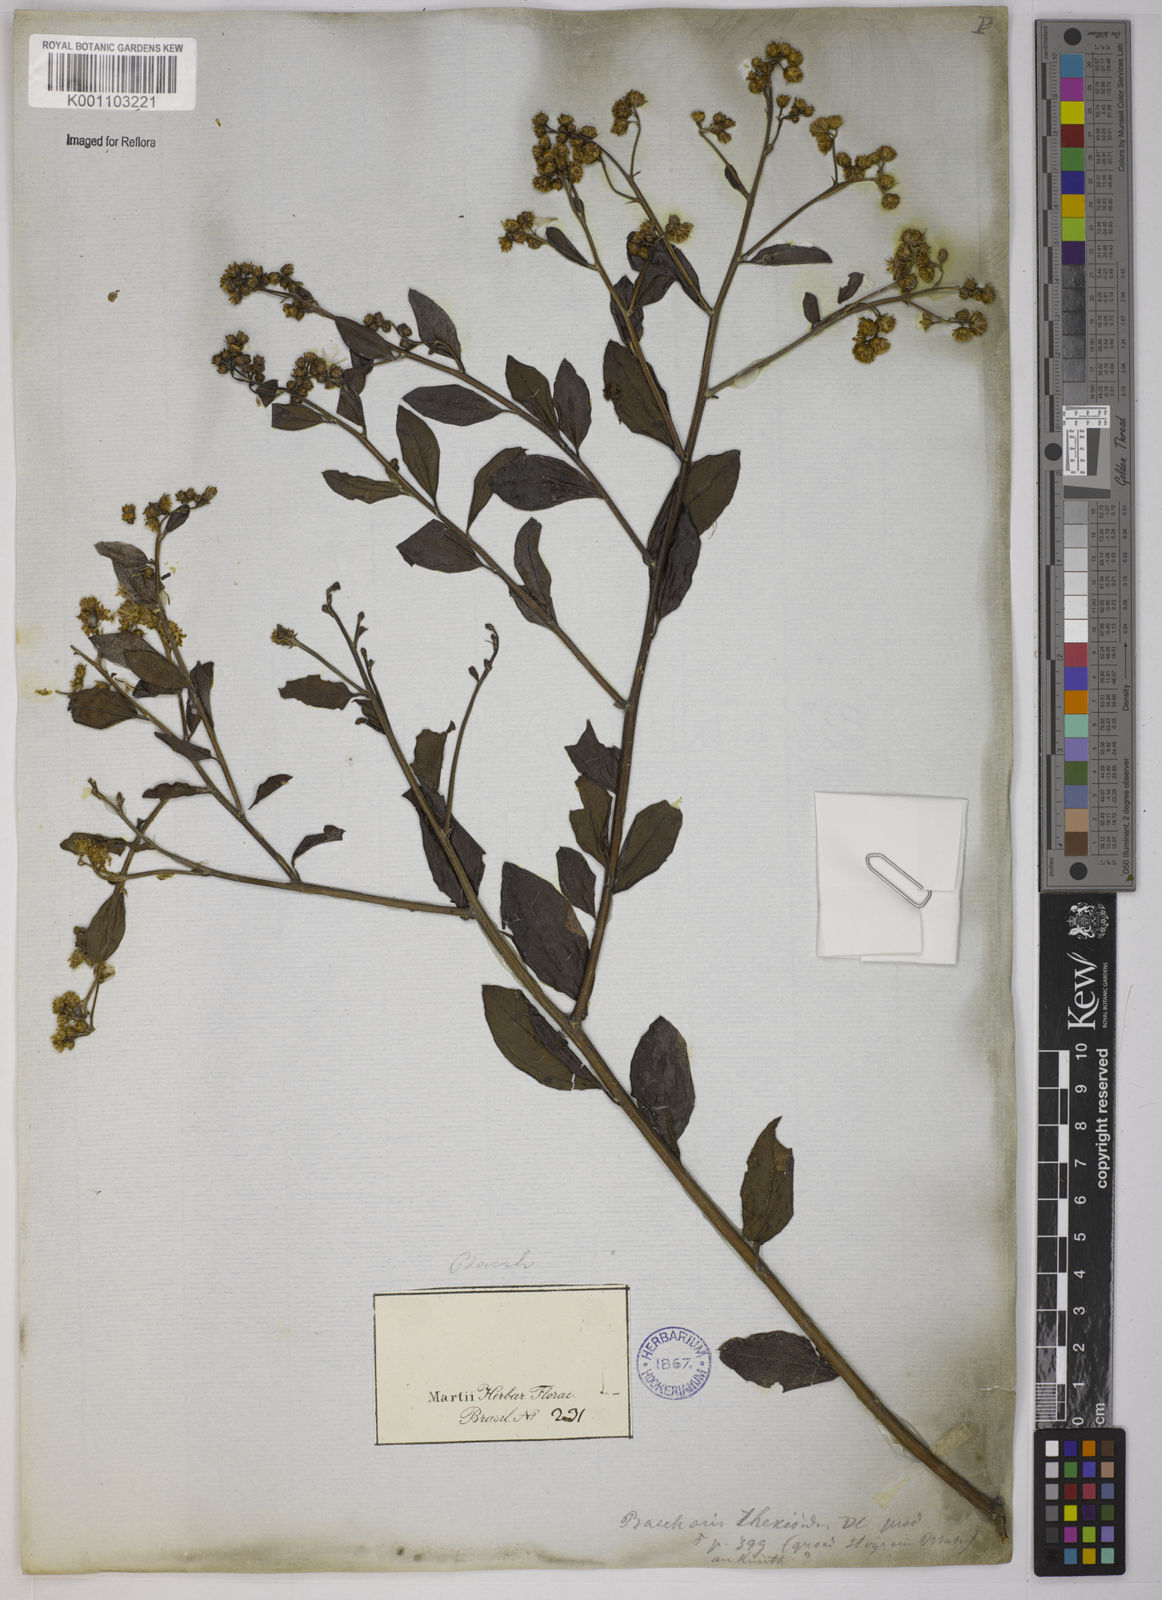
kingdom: Plantae
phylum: Tracheophyta
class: Magnoliopsida
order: Asterales
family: Asteraceae
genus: Baccharis
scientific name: Baccharis trinervis
